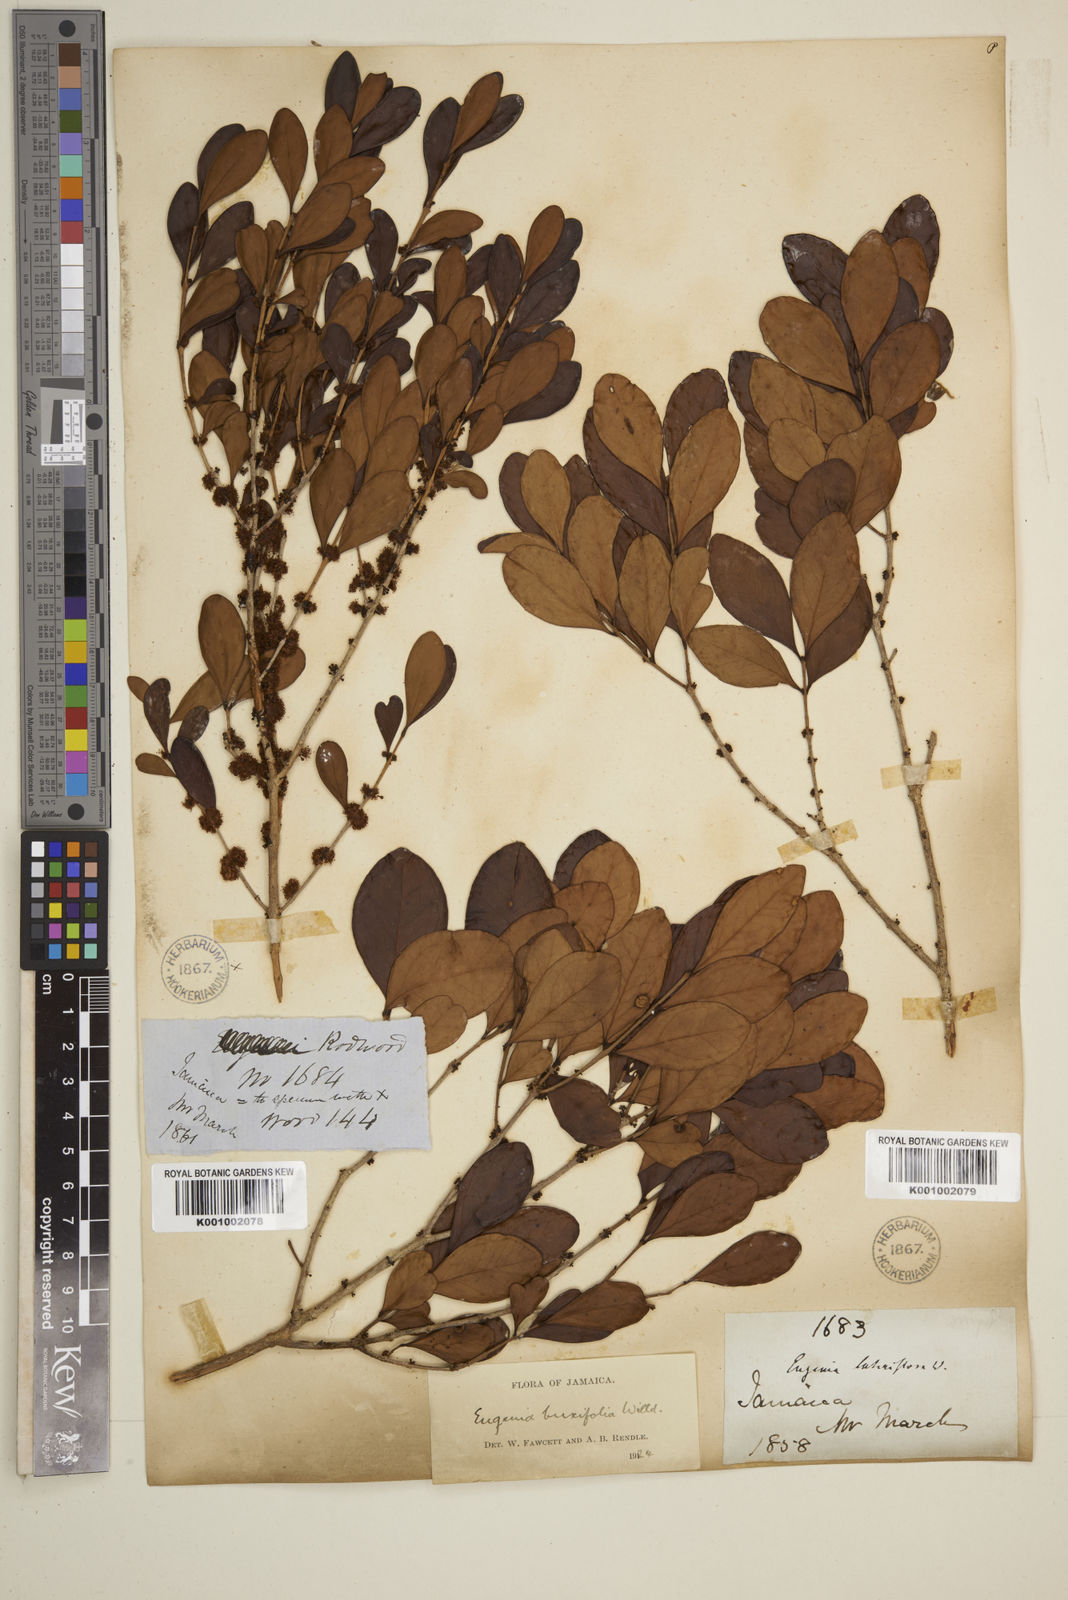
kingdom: Plantae
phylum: Tracheophyta
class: Magnoliopsida
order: Myrtales
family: Myrtaceae
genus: Eugenia
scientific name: Eugenia buxifolia
